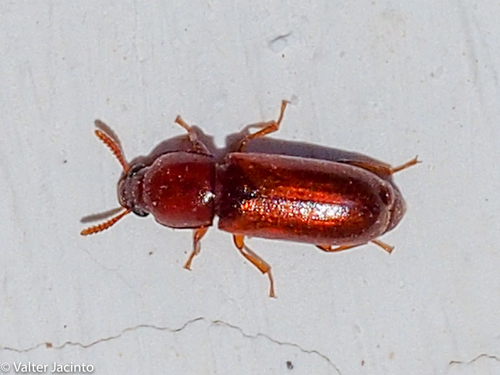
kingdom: Animalia
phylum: Arthropoda
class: Insecta
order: Coleoptera
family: Tenebrionidae
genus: Corticeus
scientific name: Corticeus
